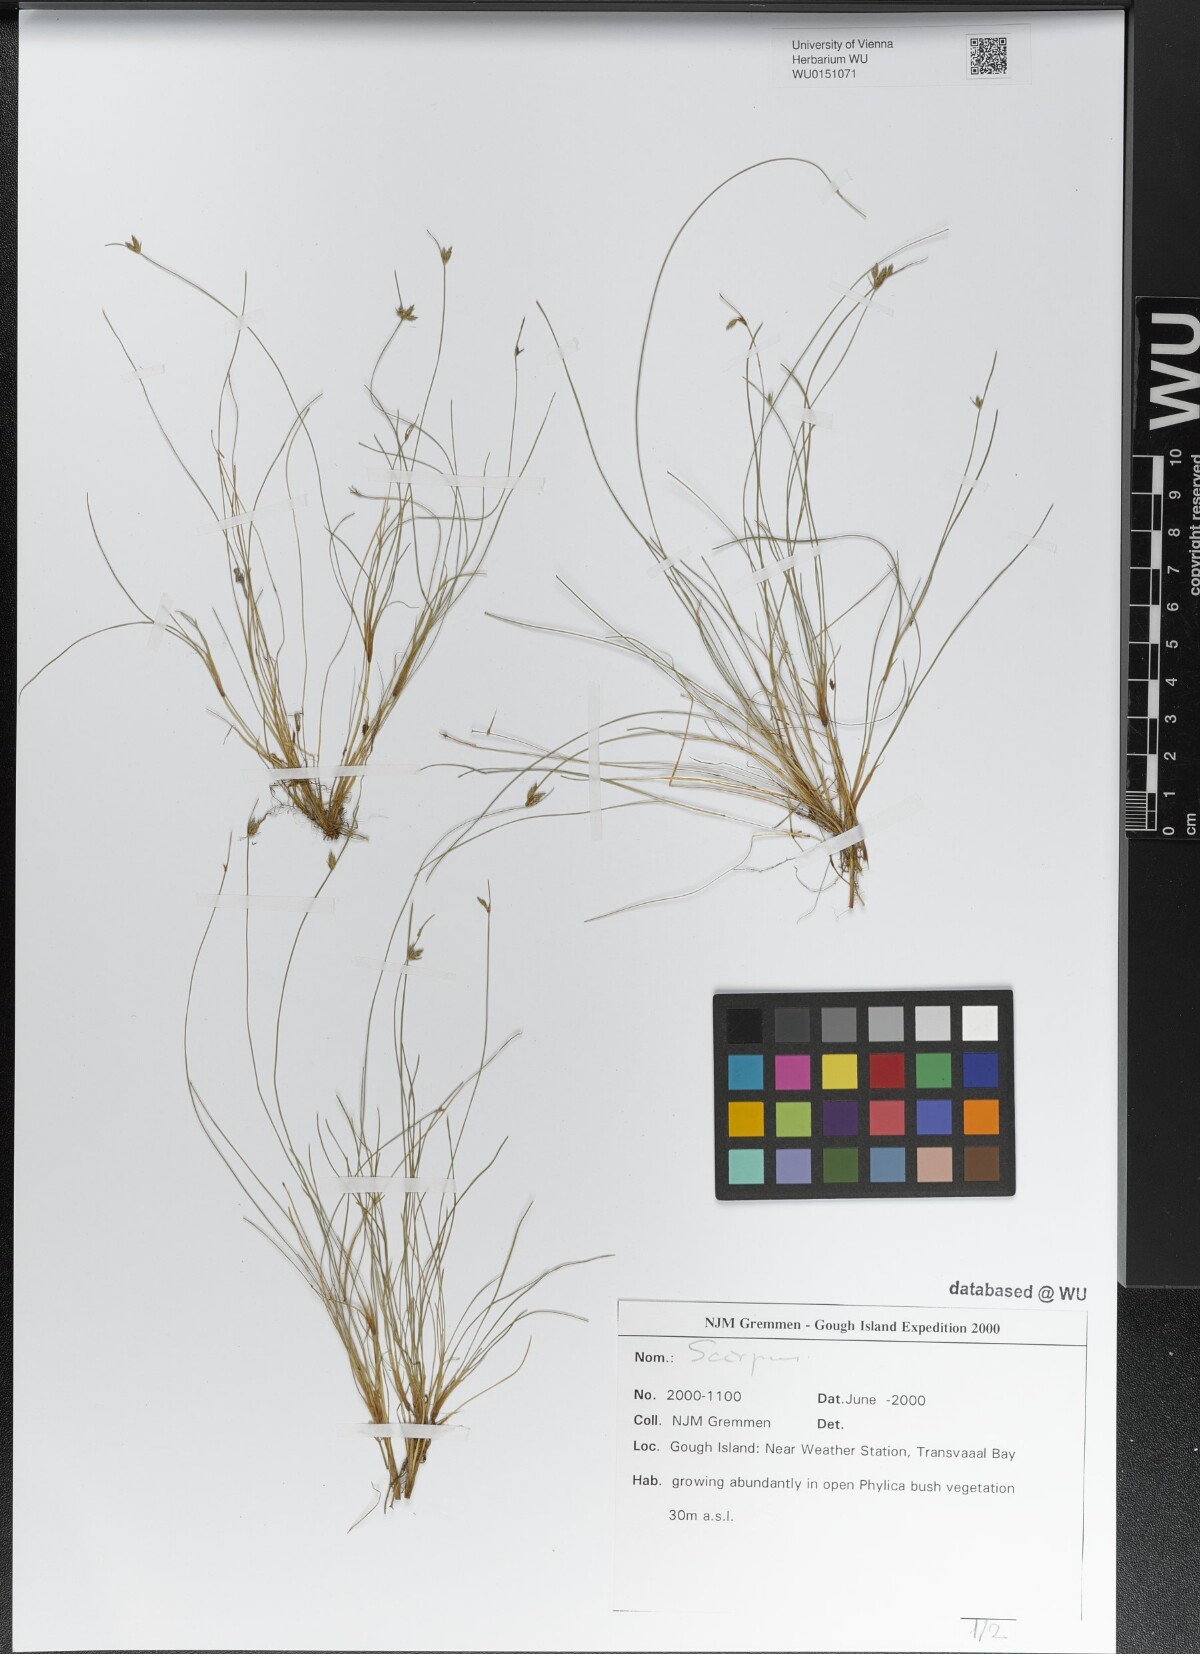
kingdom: Plantae
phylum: Tracheophyta
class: Liliopsida
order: Poales
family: Cyperaceae
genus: Scirpus
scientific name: Scirpus
